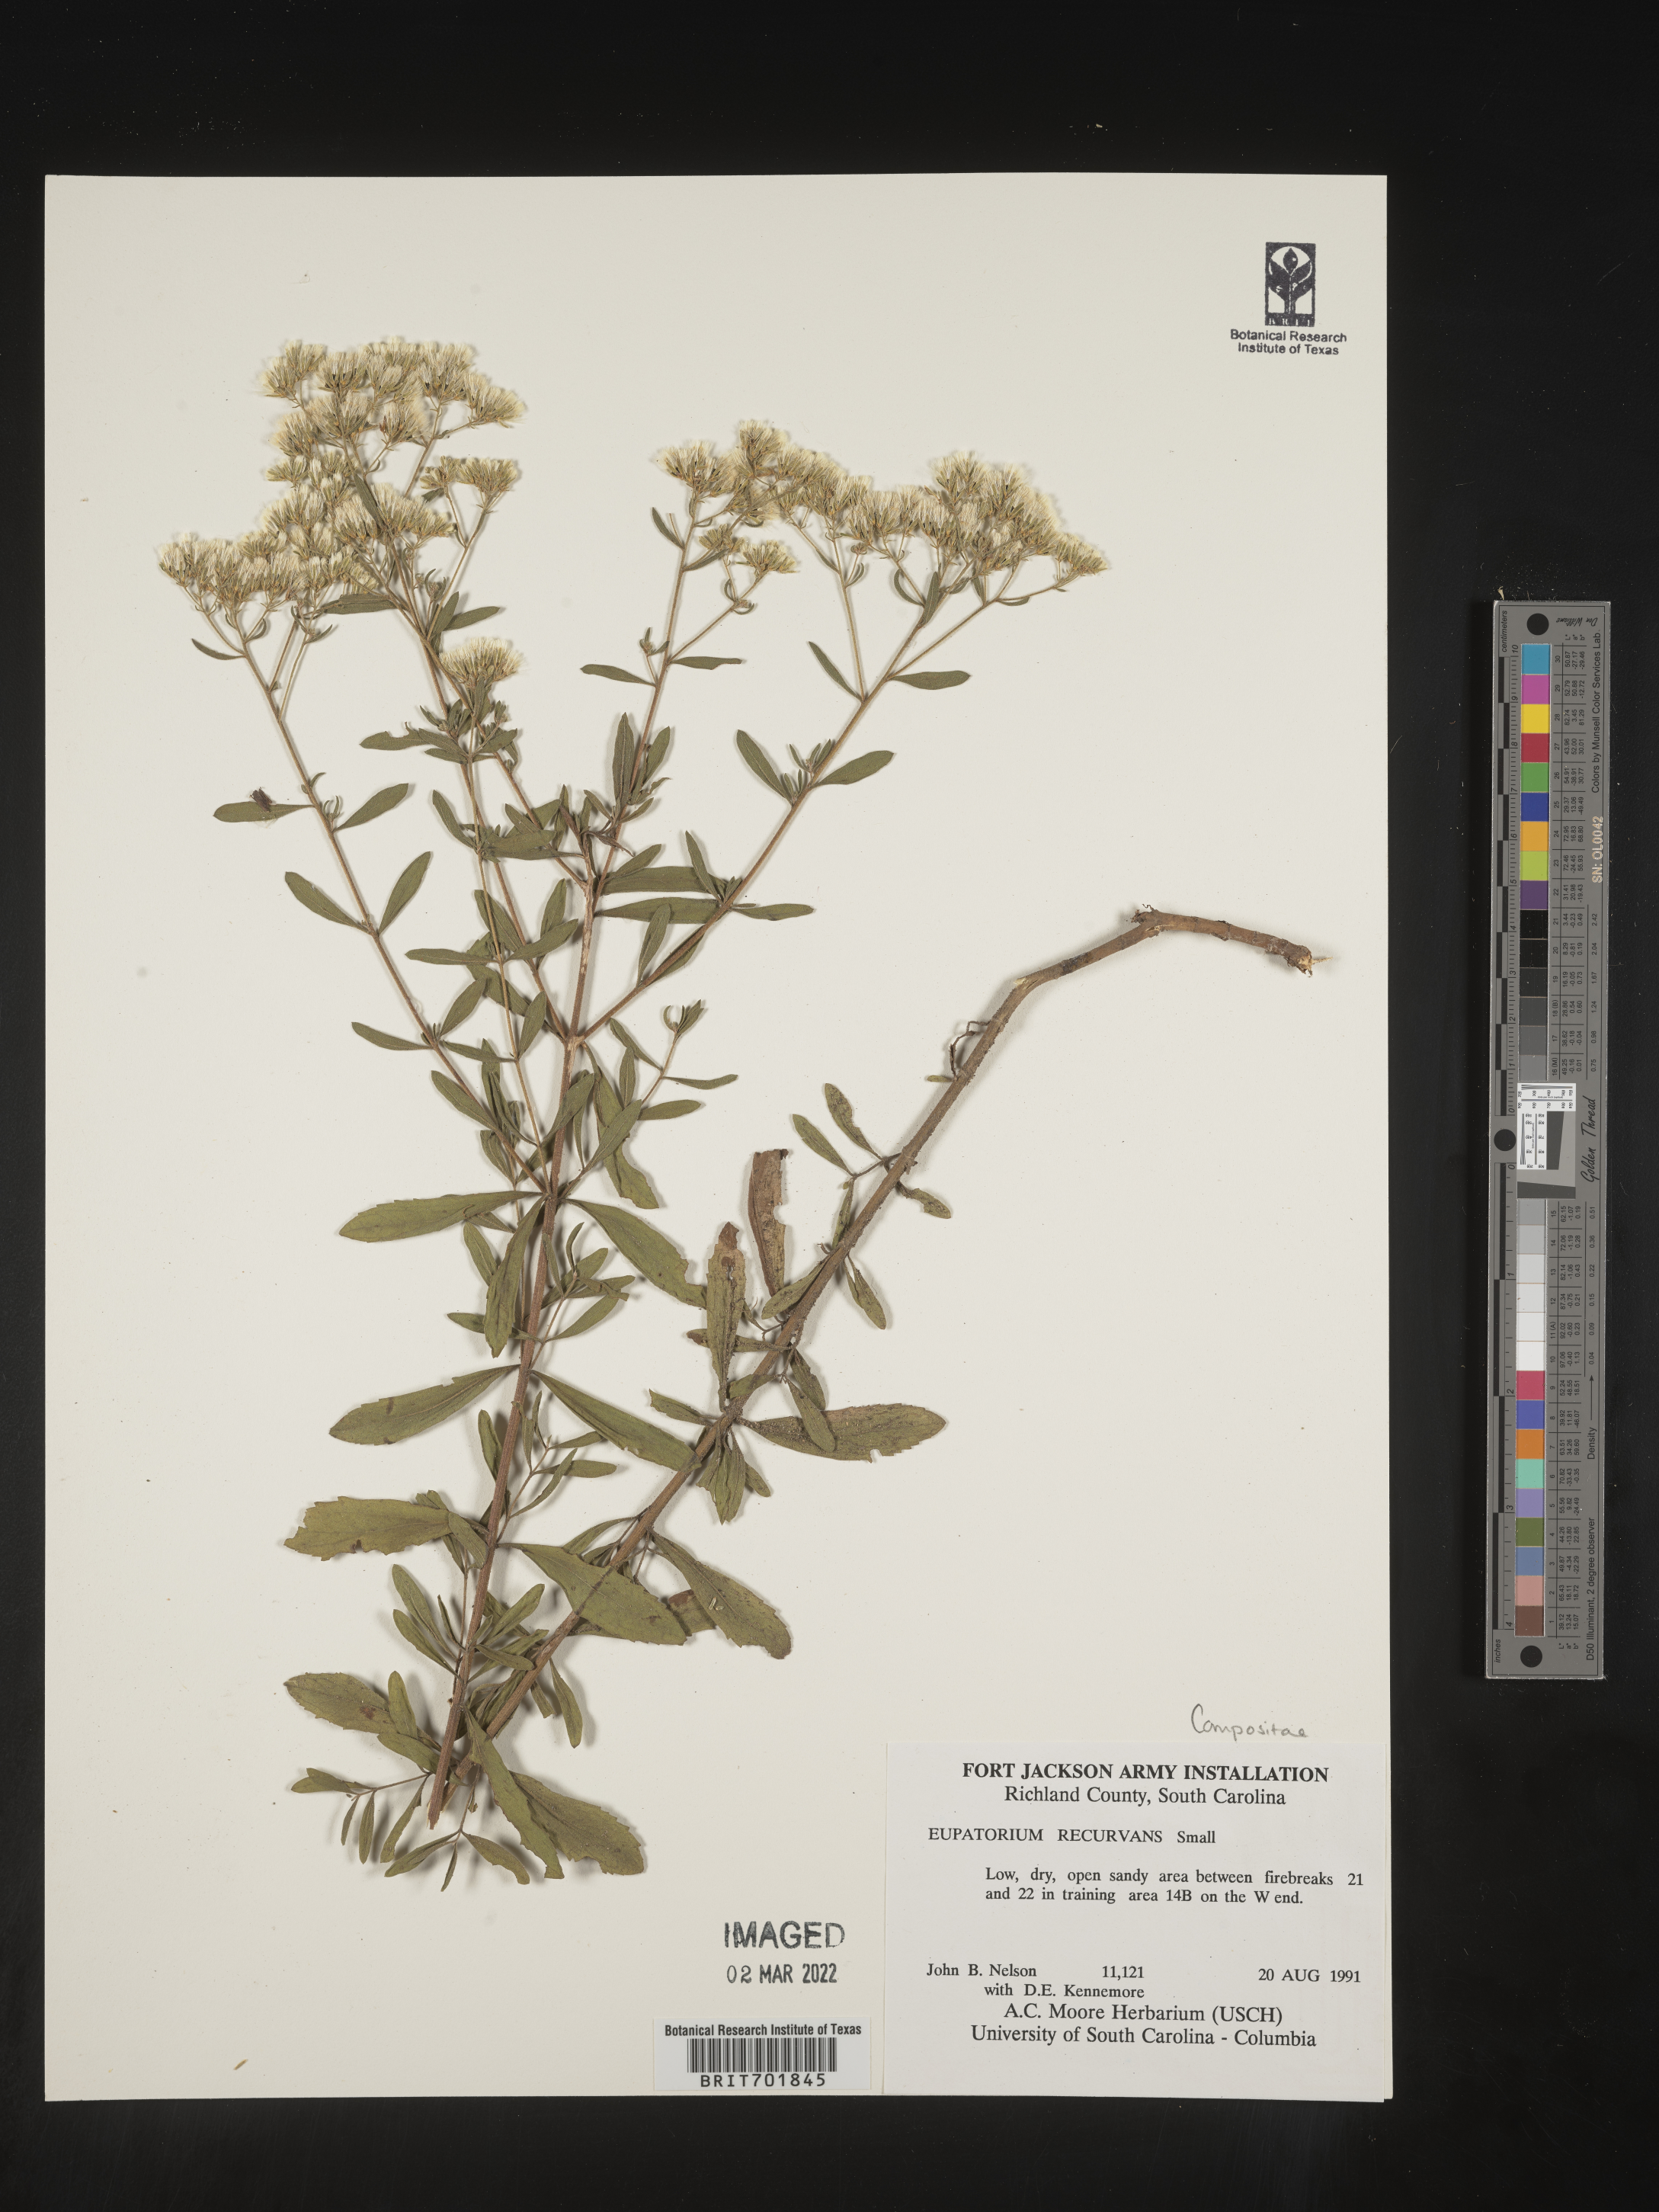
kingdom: Plantae
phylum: Tracheophyta
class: Magnoliopsida
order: Asterales
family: Asteraceae
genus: Eupatorium
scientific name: Eupatorium mohrii
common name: Mohr's thoroughwort
